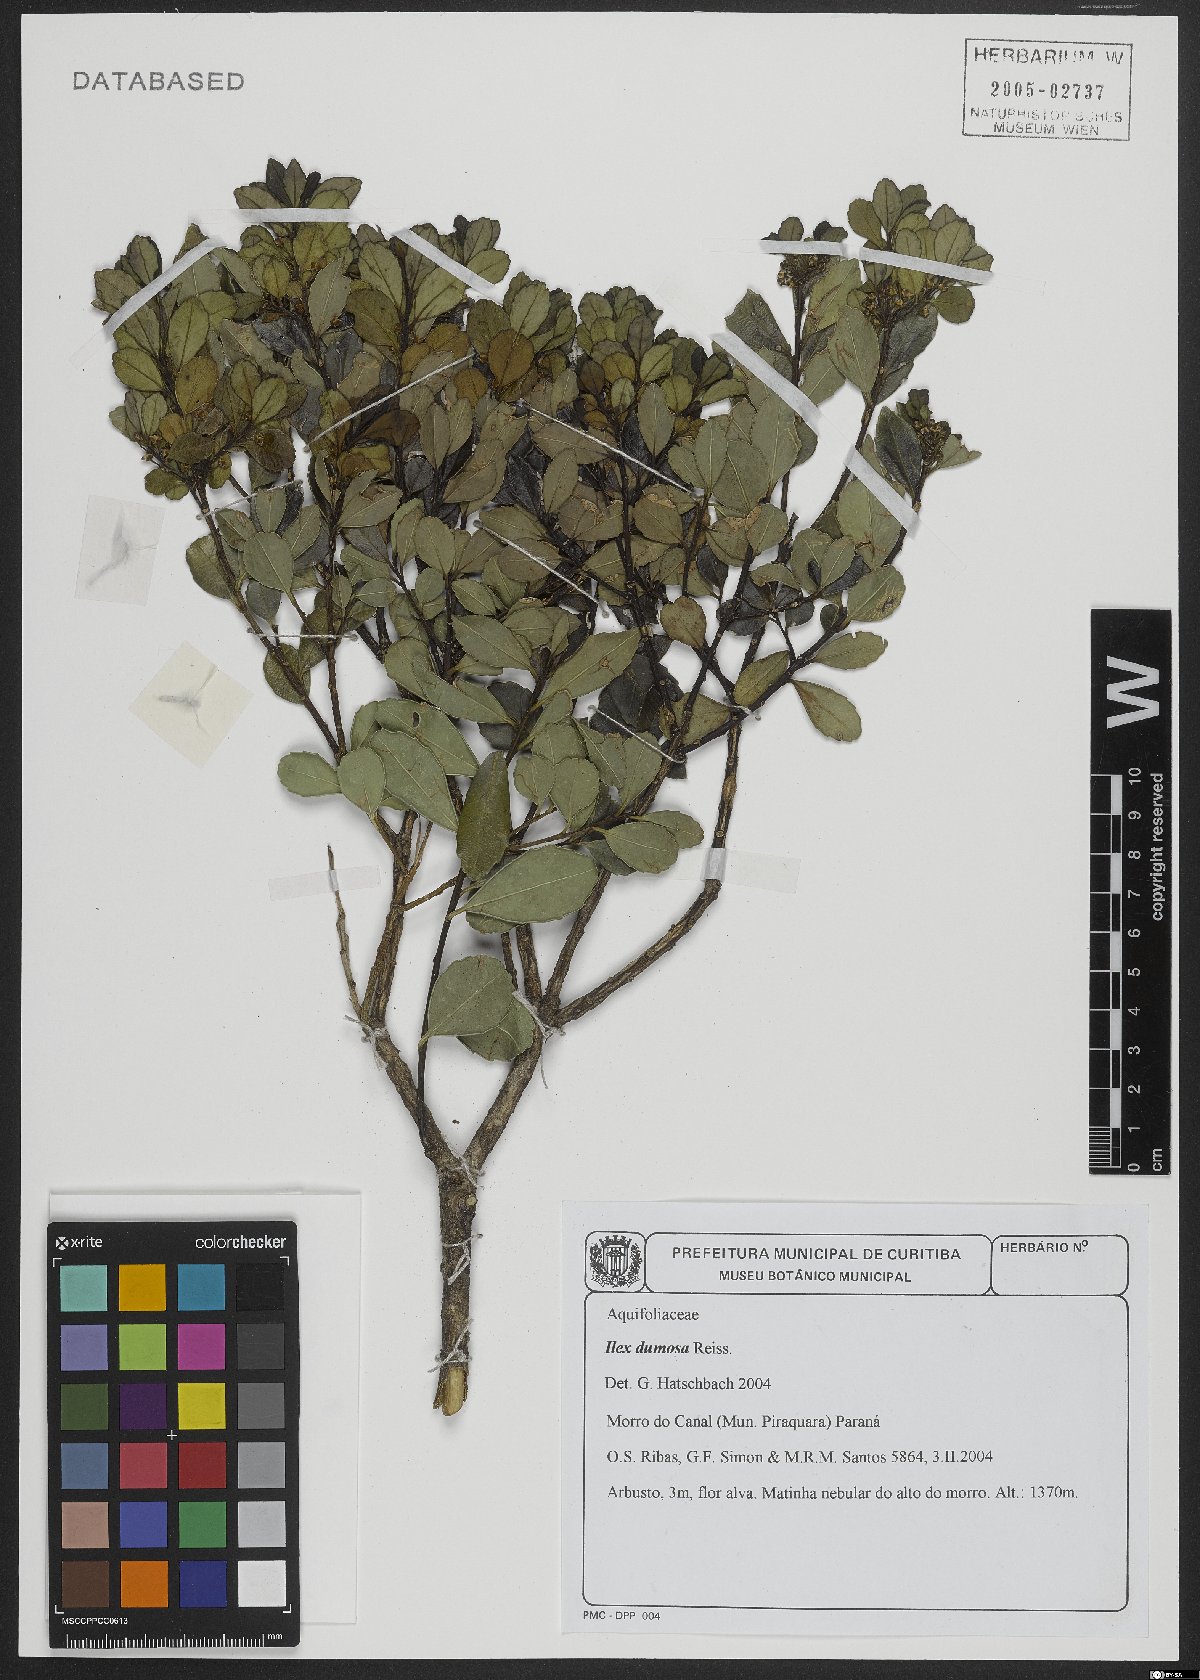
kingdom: Plantae
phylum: Tracheophyta
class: Magnoliopsida
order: Aquifoliales
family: Aquifoliaceae
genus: Ilex
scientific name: Ilex dumosa
